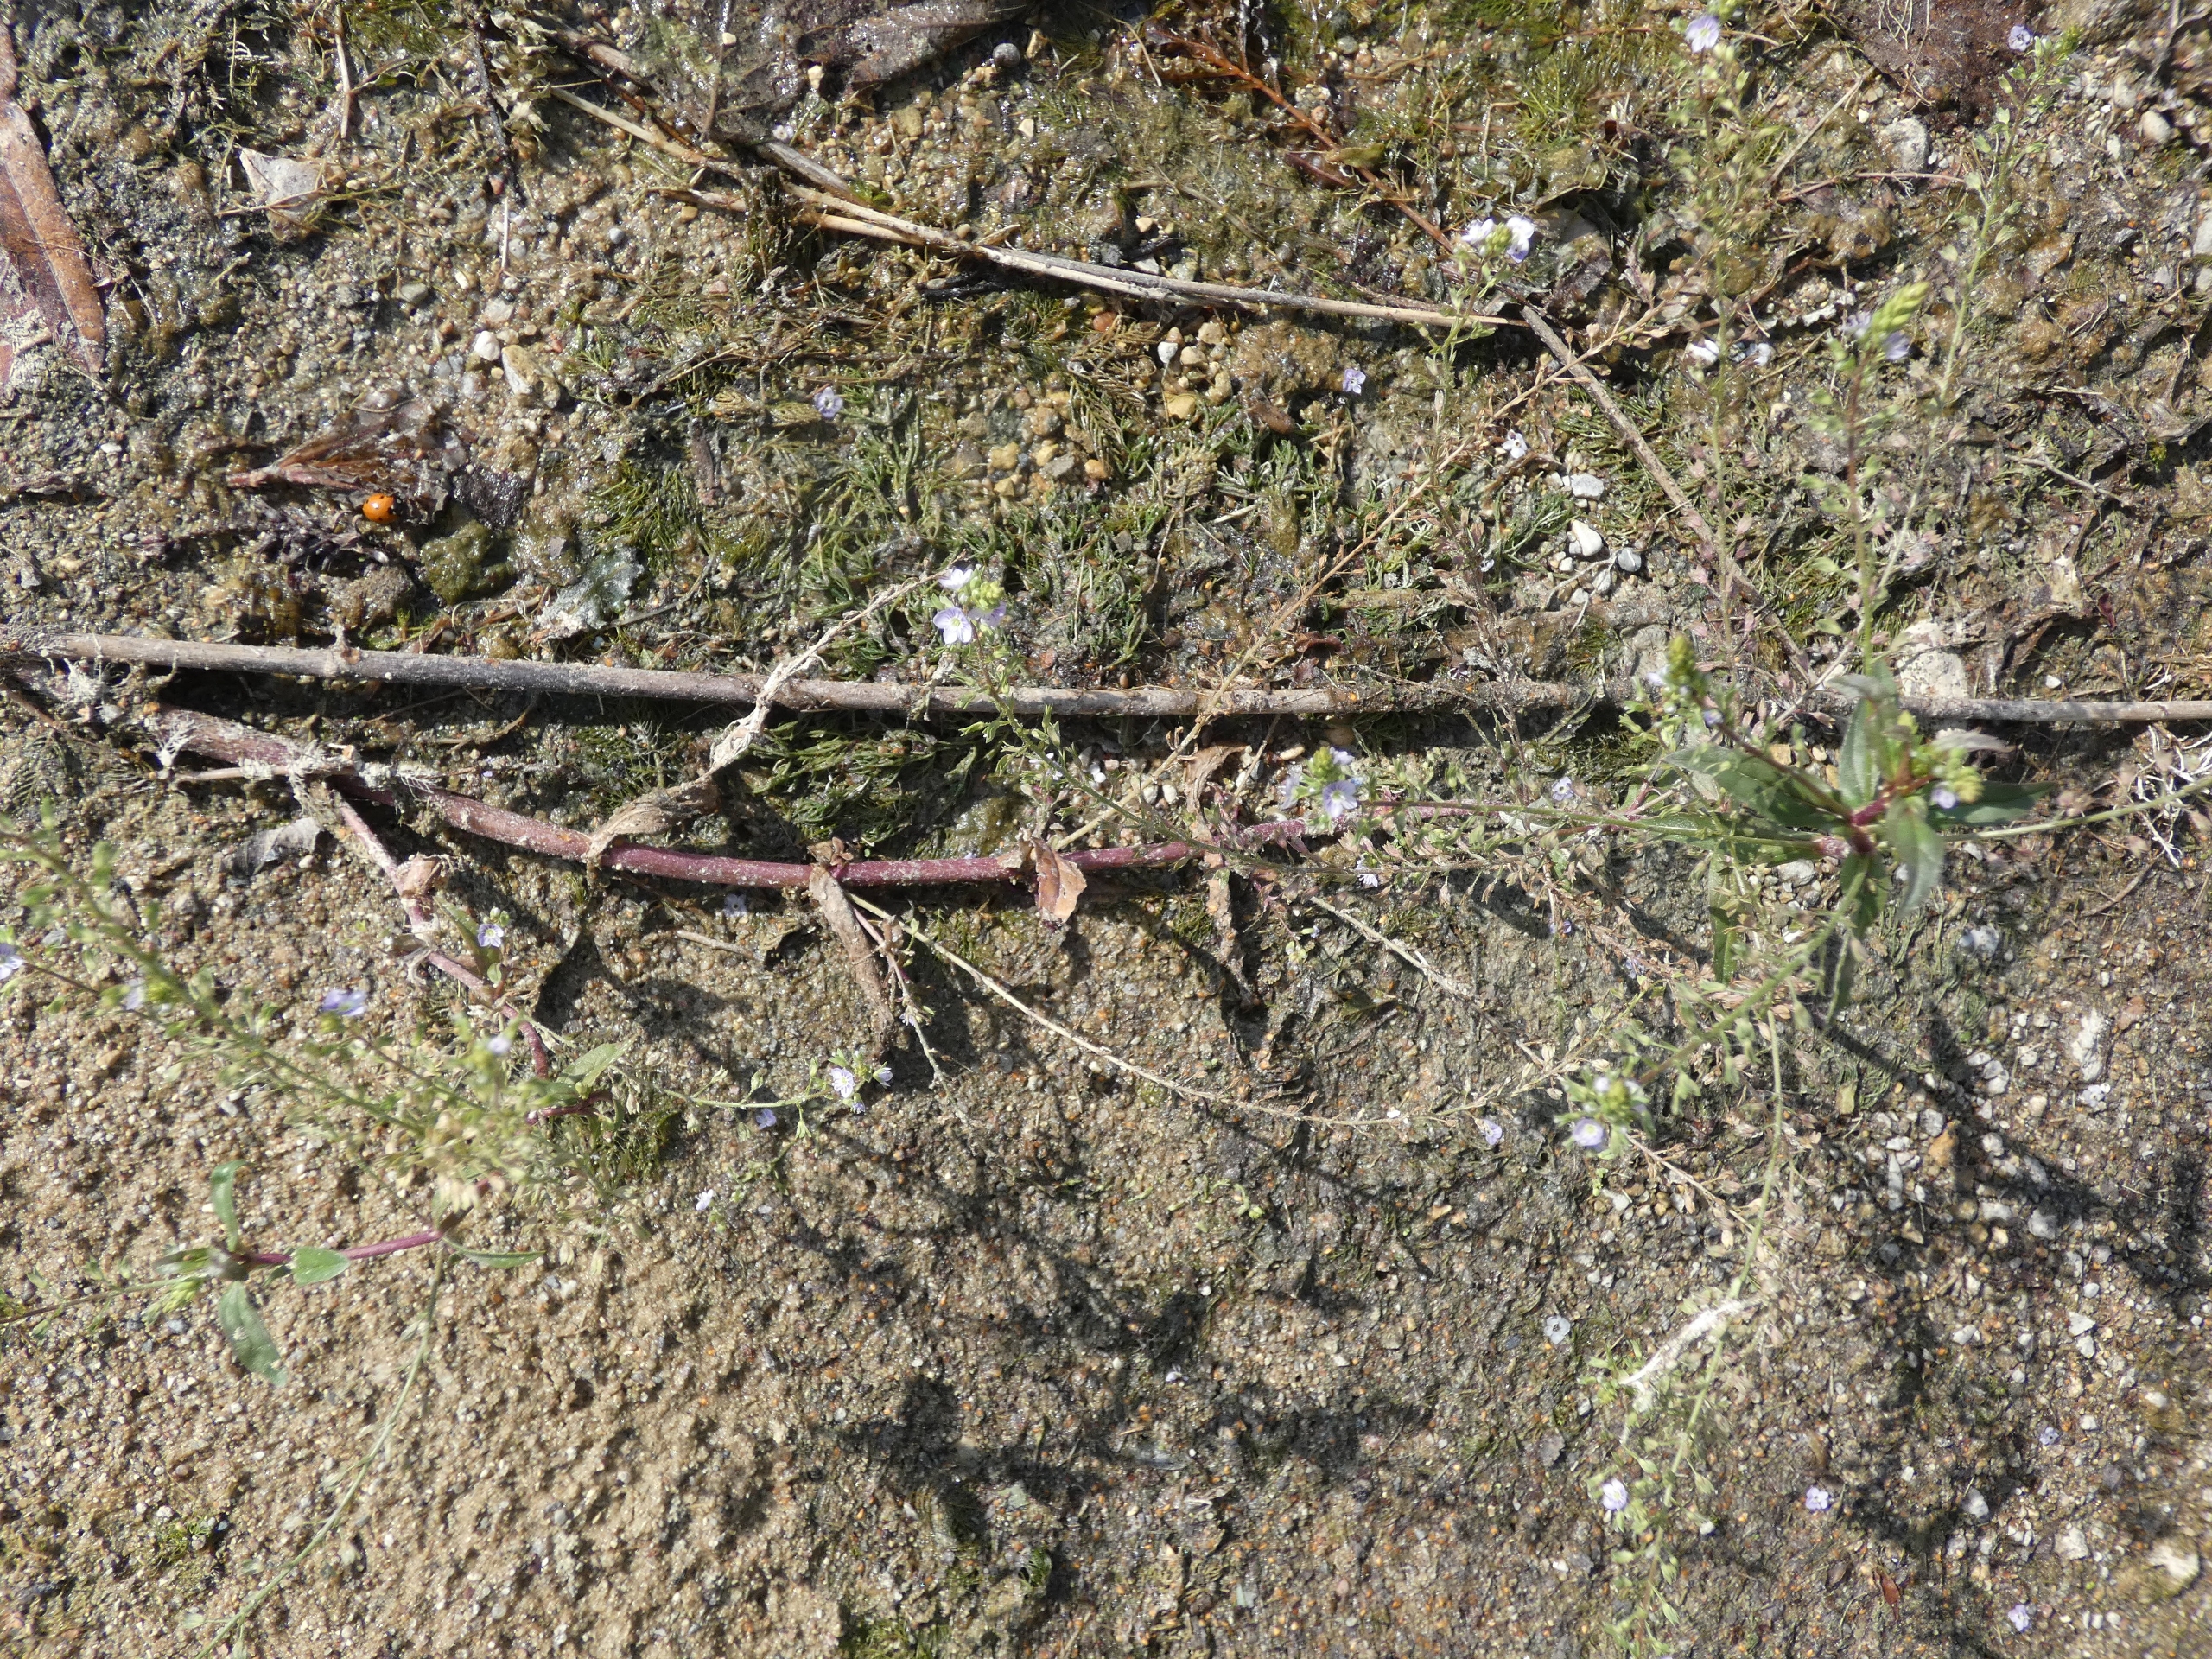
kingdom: Plantae
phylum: Tracheophyta
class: Magnoliopsida
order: Lamiales
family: Plantaginaceae
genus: Veronica
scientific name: Veronica anagallis-aquatica
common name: Lancetbladet ærenpris
